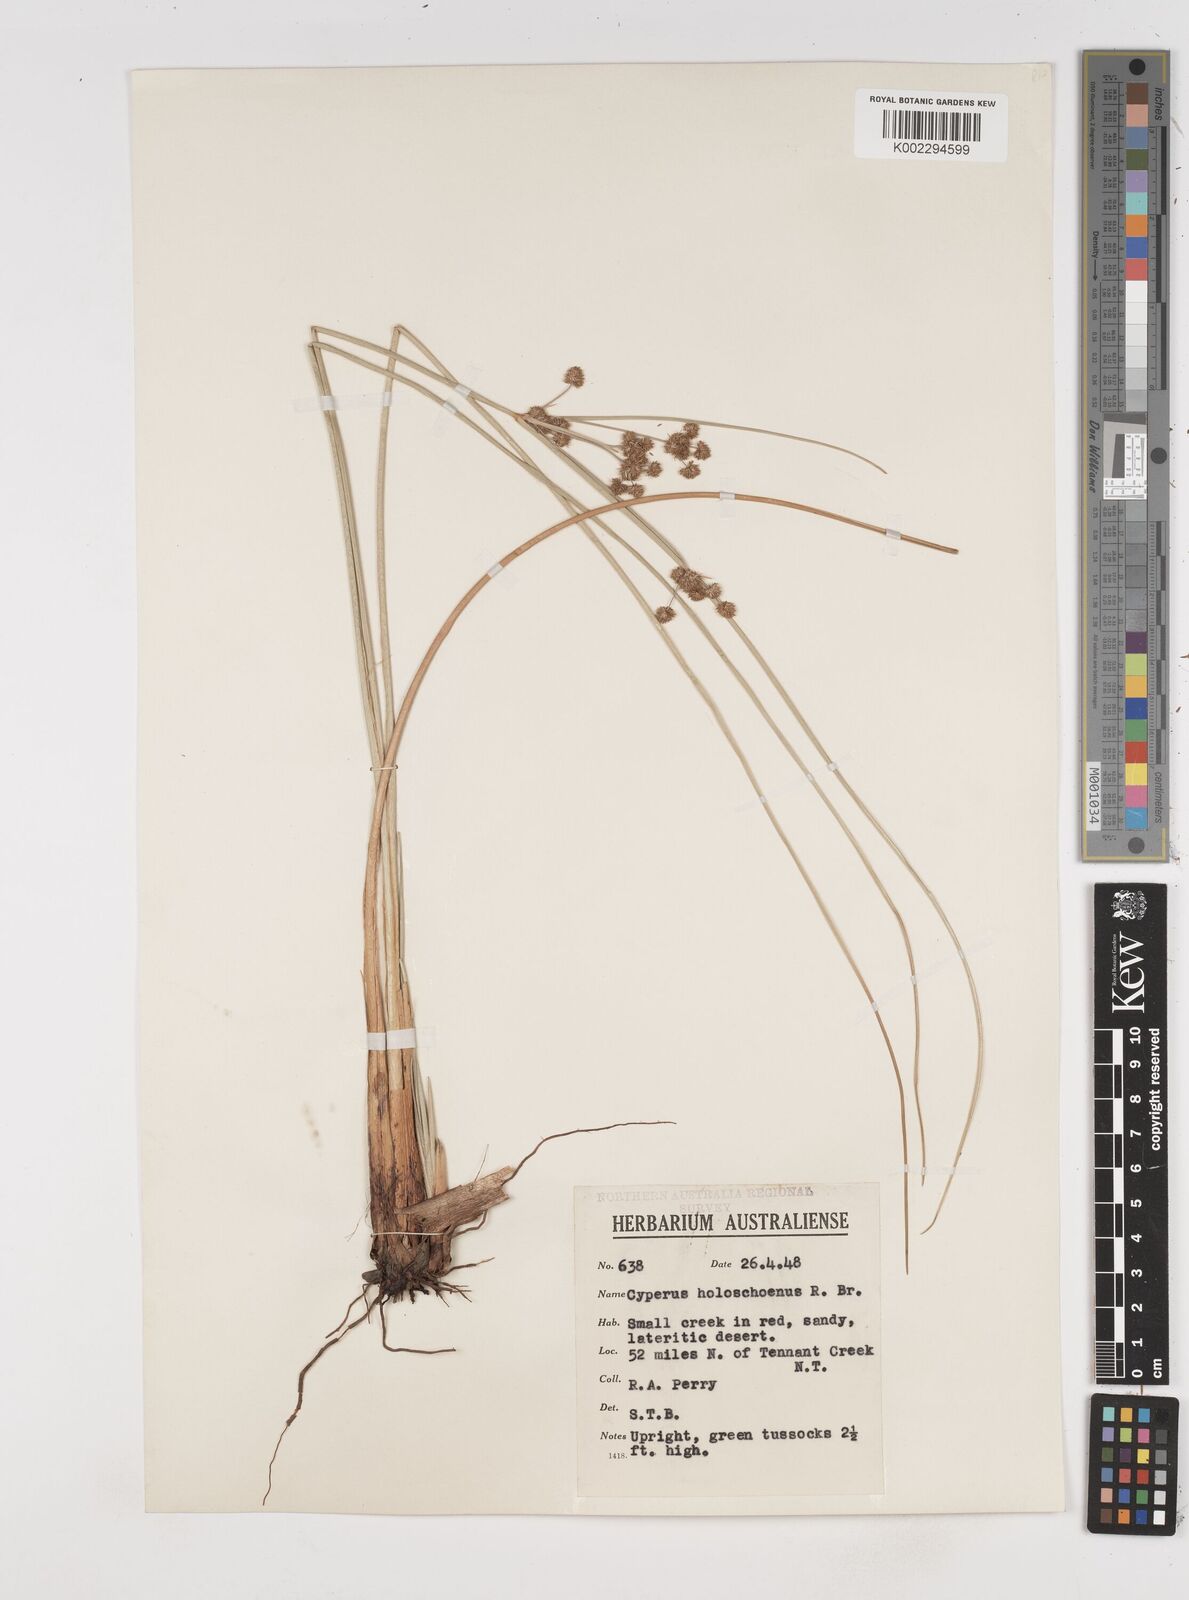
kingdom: Plantae
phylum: Tracheophyta
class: Liliopsida
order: Poales
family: Cyperaceae
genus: Cyperus
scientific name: Cyperus holoschoenus
